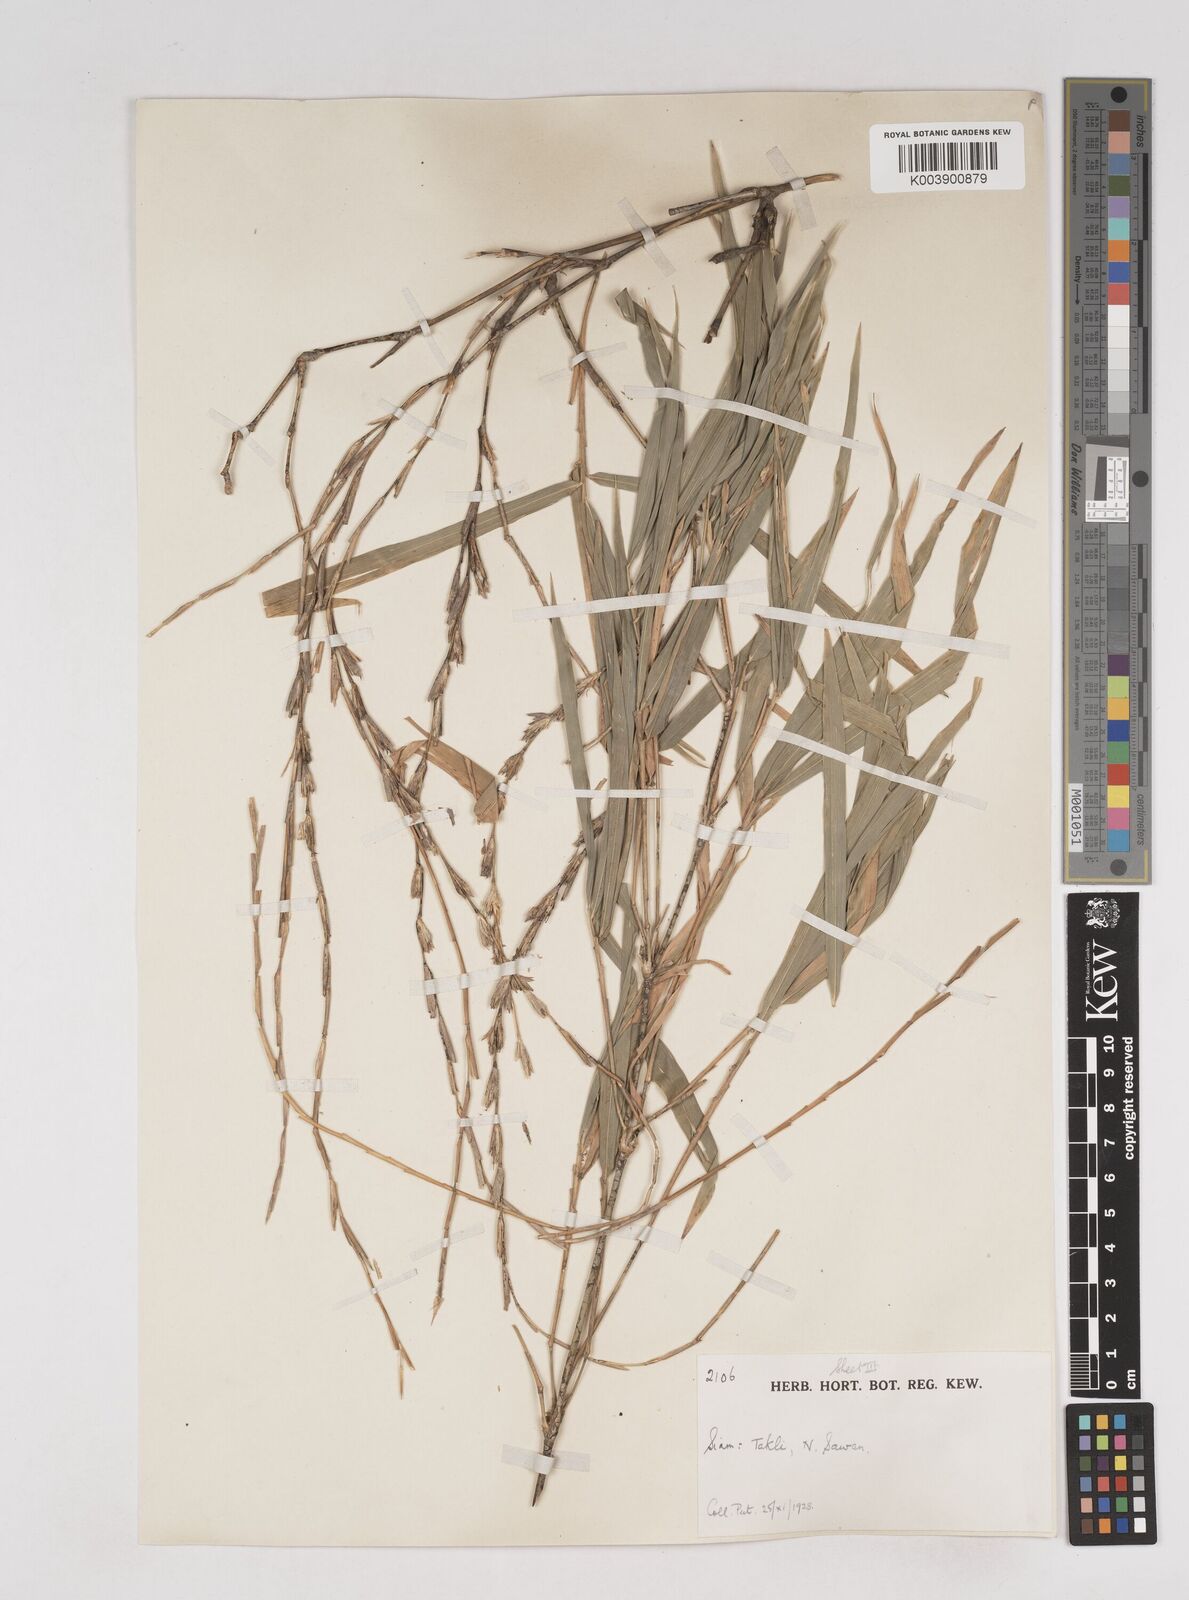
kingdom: Plantae
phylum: Tracheophyta
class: Liliopsida
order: Poales
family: Poaceae
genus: Thyrsostachys
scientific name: Thyrsostachys
